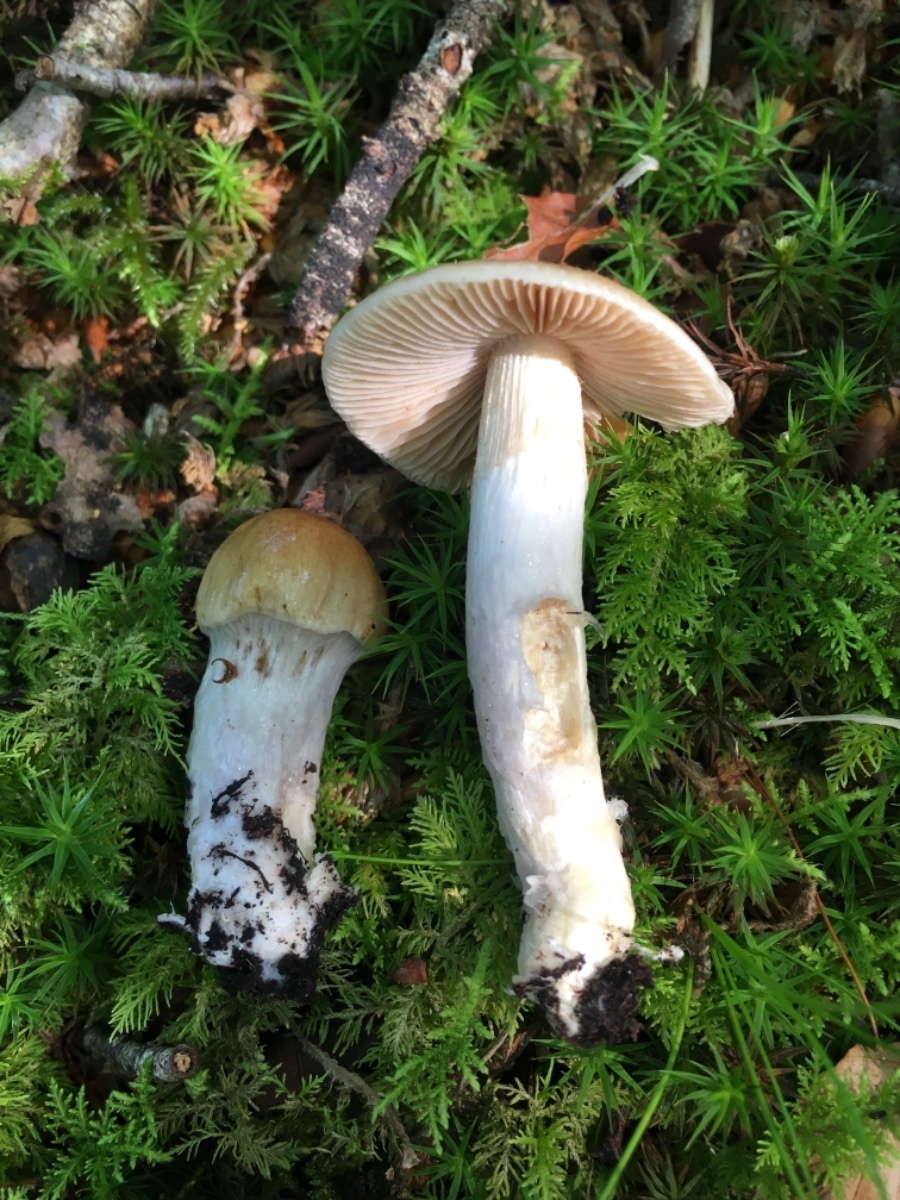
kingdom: Fungi
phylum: Basidiomycota
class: Agaricomycetes
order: Agaricales
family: Cortinariaceae
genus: Cortinarius
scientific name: Cortinarius elatior
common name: høj slørhat
